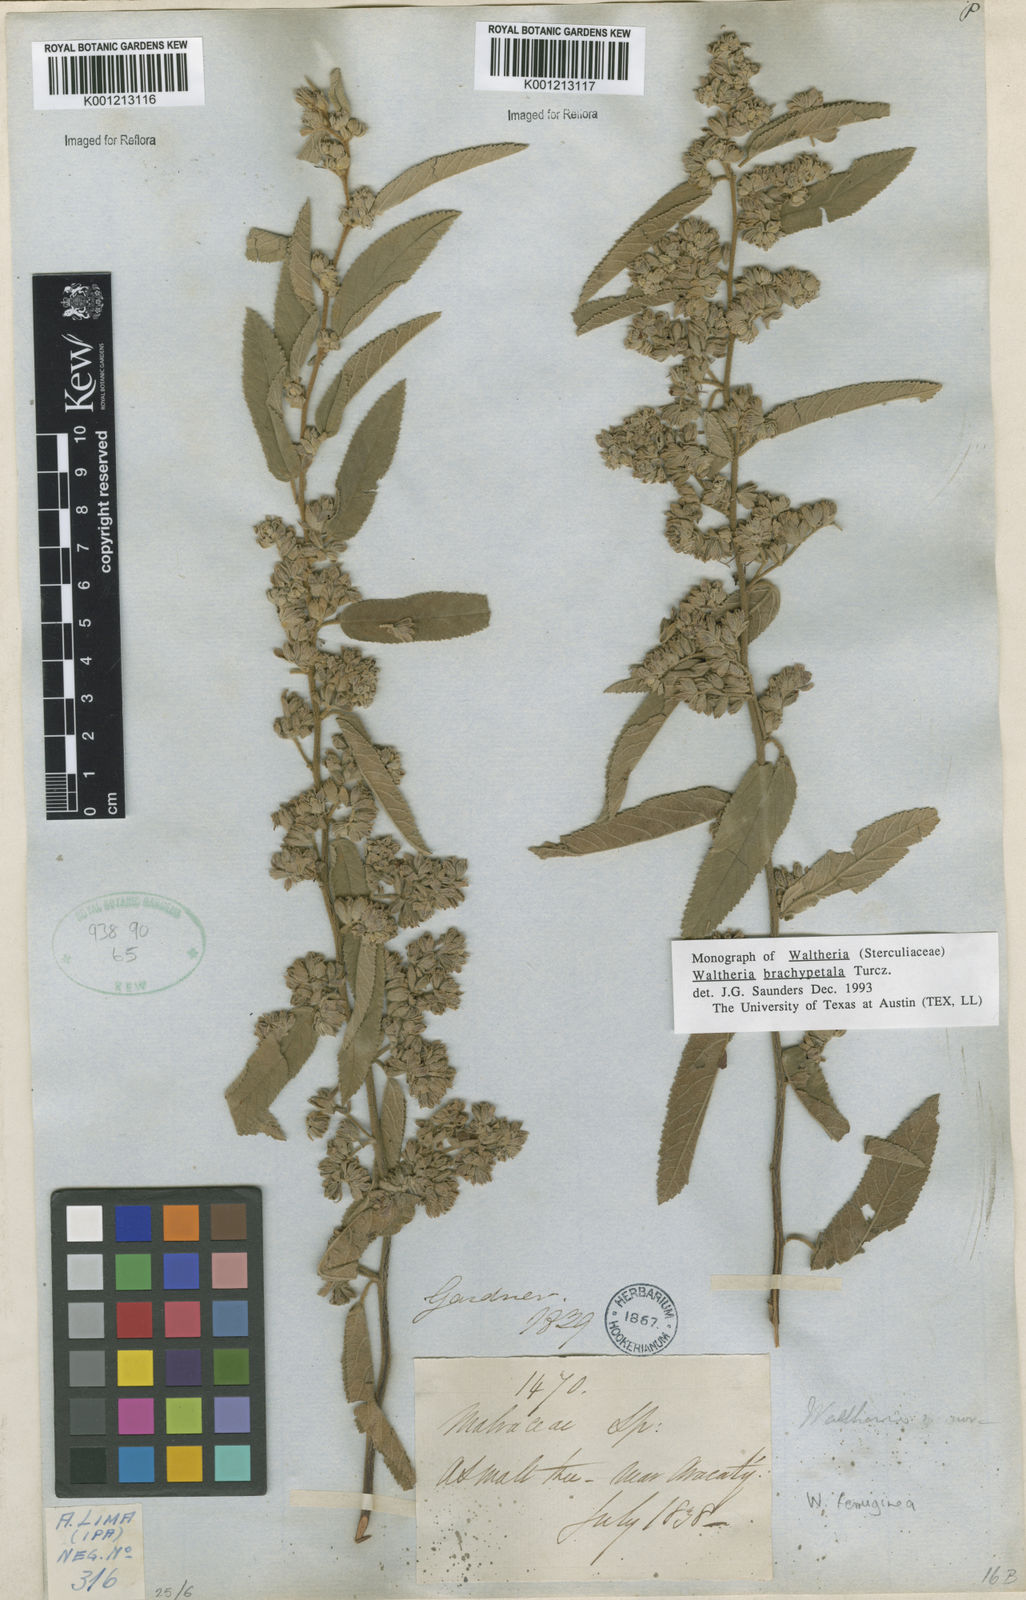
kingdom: Plantae
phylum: Tracheophyta
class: Magnoliopsida
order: Malvales
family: Malvaceae
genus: Waltheria
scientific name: Waltheria ferruginea
